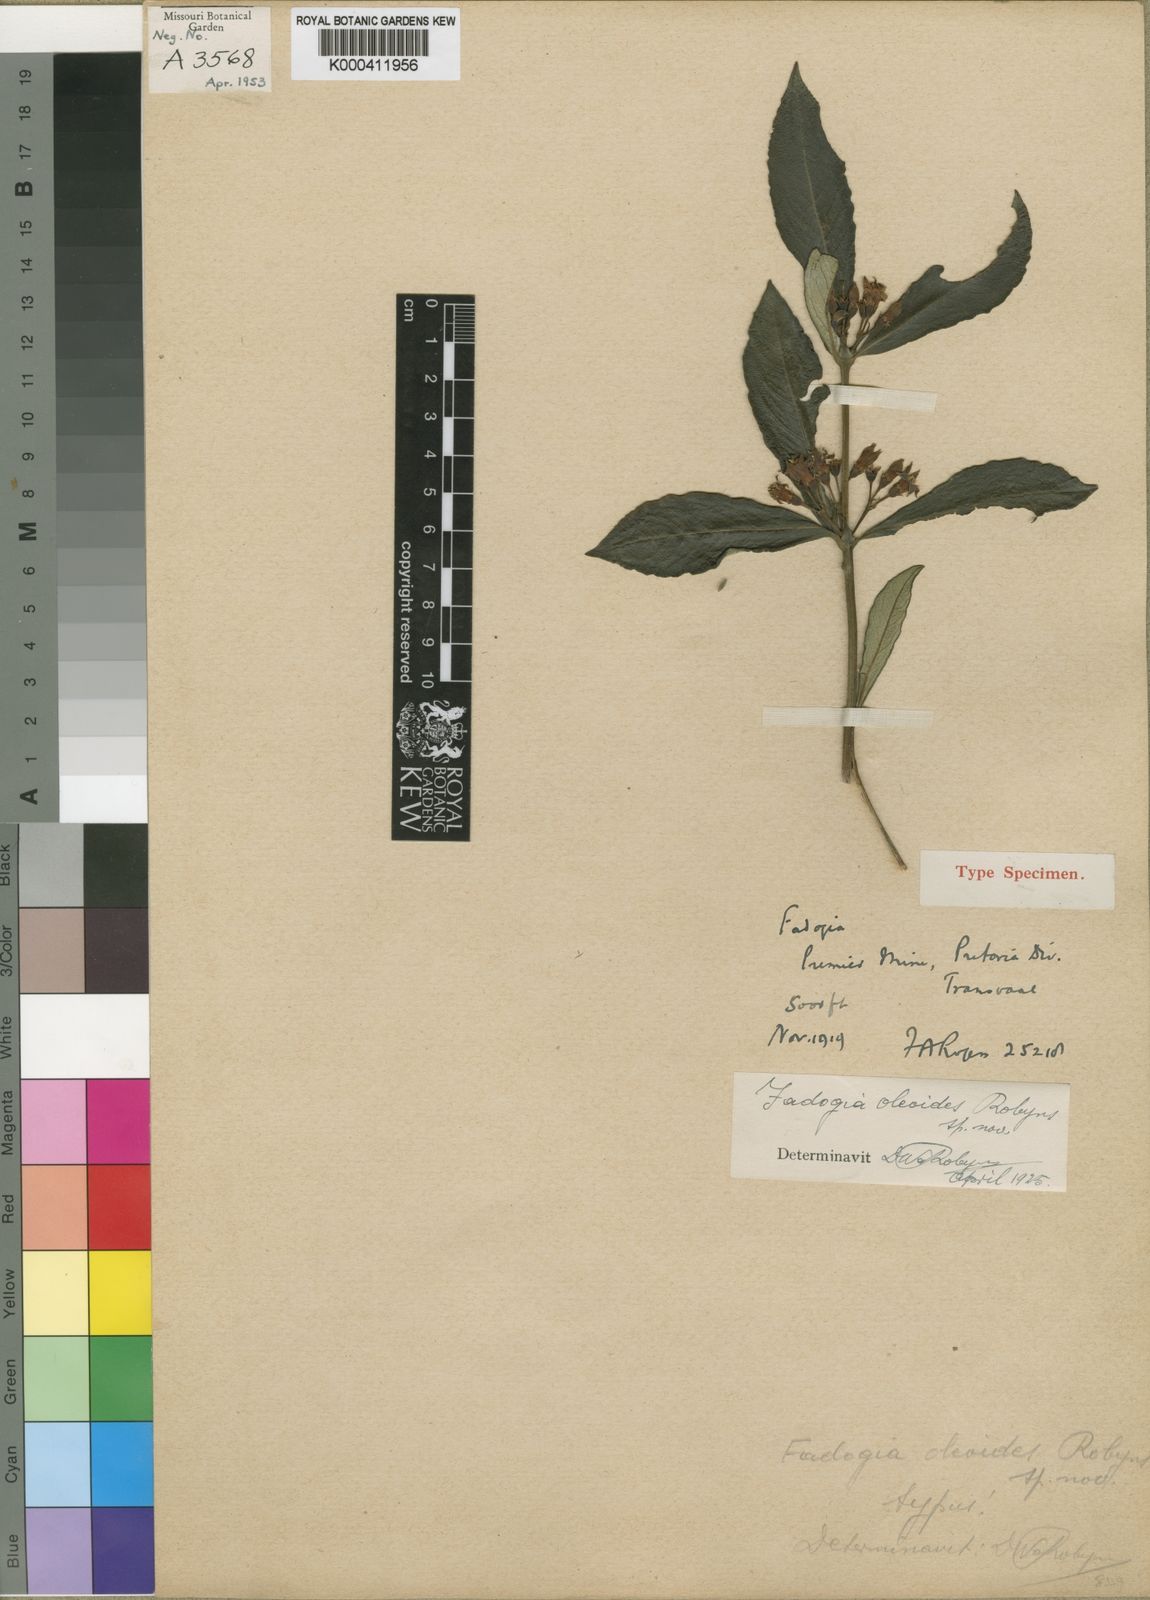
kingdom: Plantae
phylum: Tracheophyta
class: Magnoliopsida
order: Gentianales
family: Rubiaceae
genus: Fadogia
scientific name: Fadogia homblei
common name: Wild date
